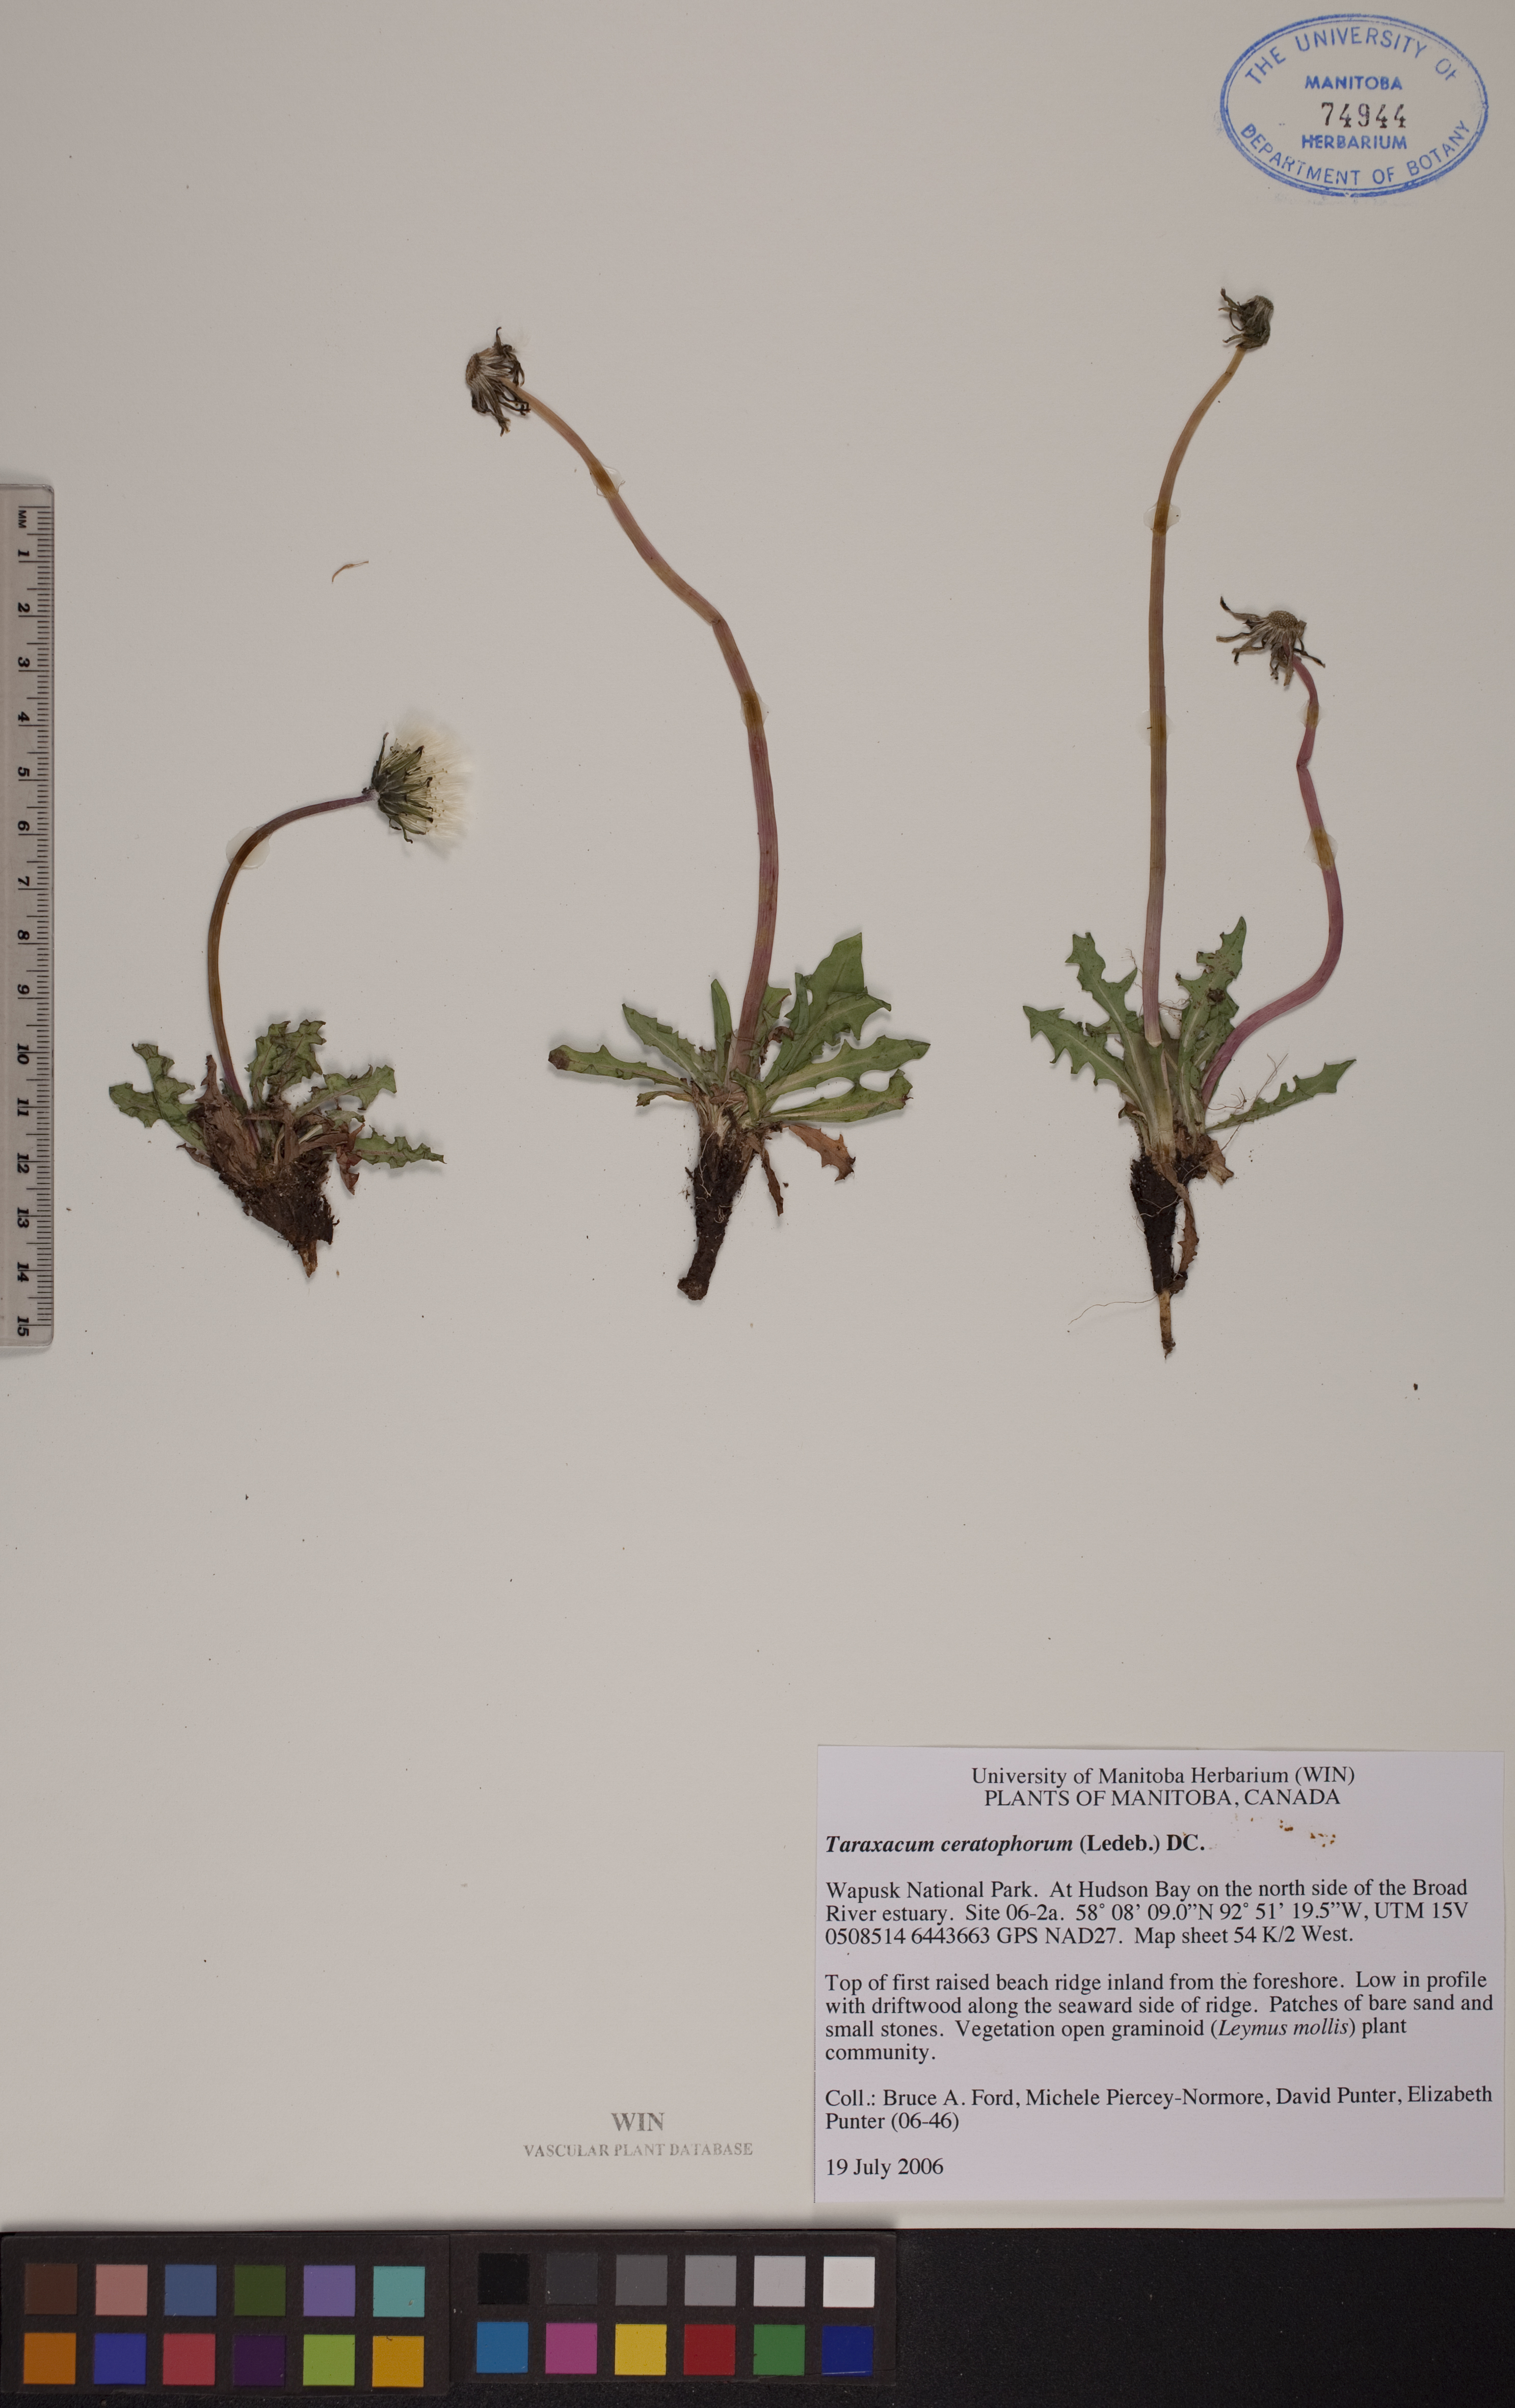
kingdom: Plantae
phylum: Tracheophyta
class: Magnoliopsida
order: Asterales
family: Asteraceae
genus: Taraxacum
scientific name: Taraxacum ceratophorum
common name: Horn-bearing dandelion
